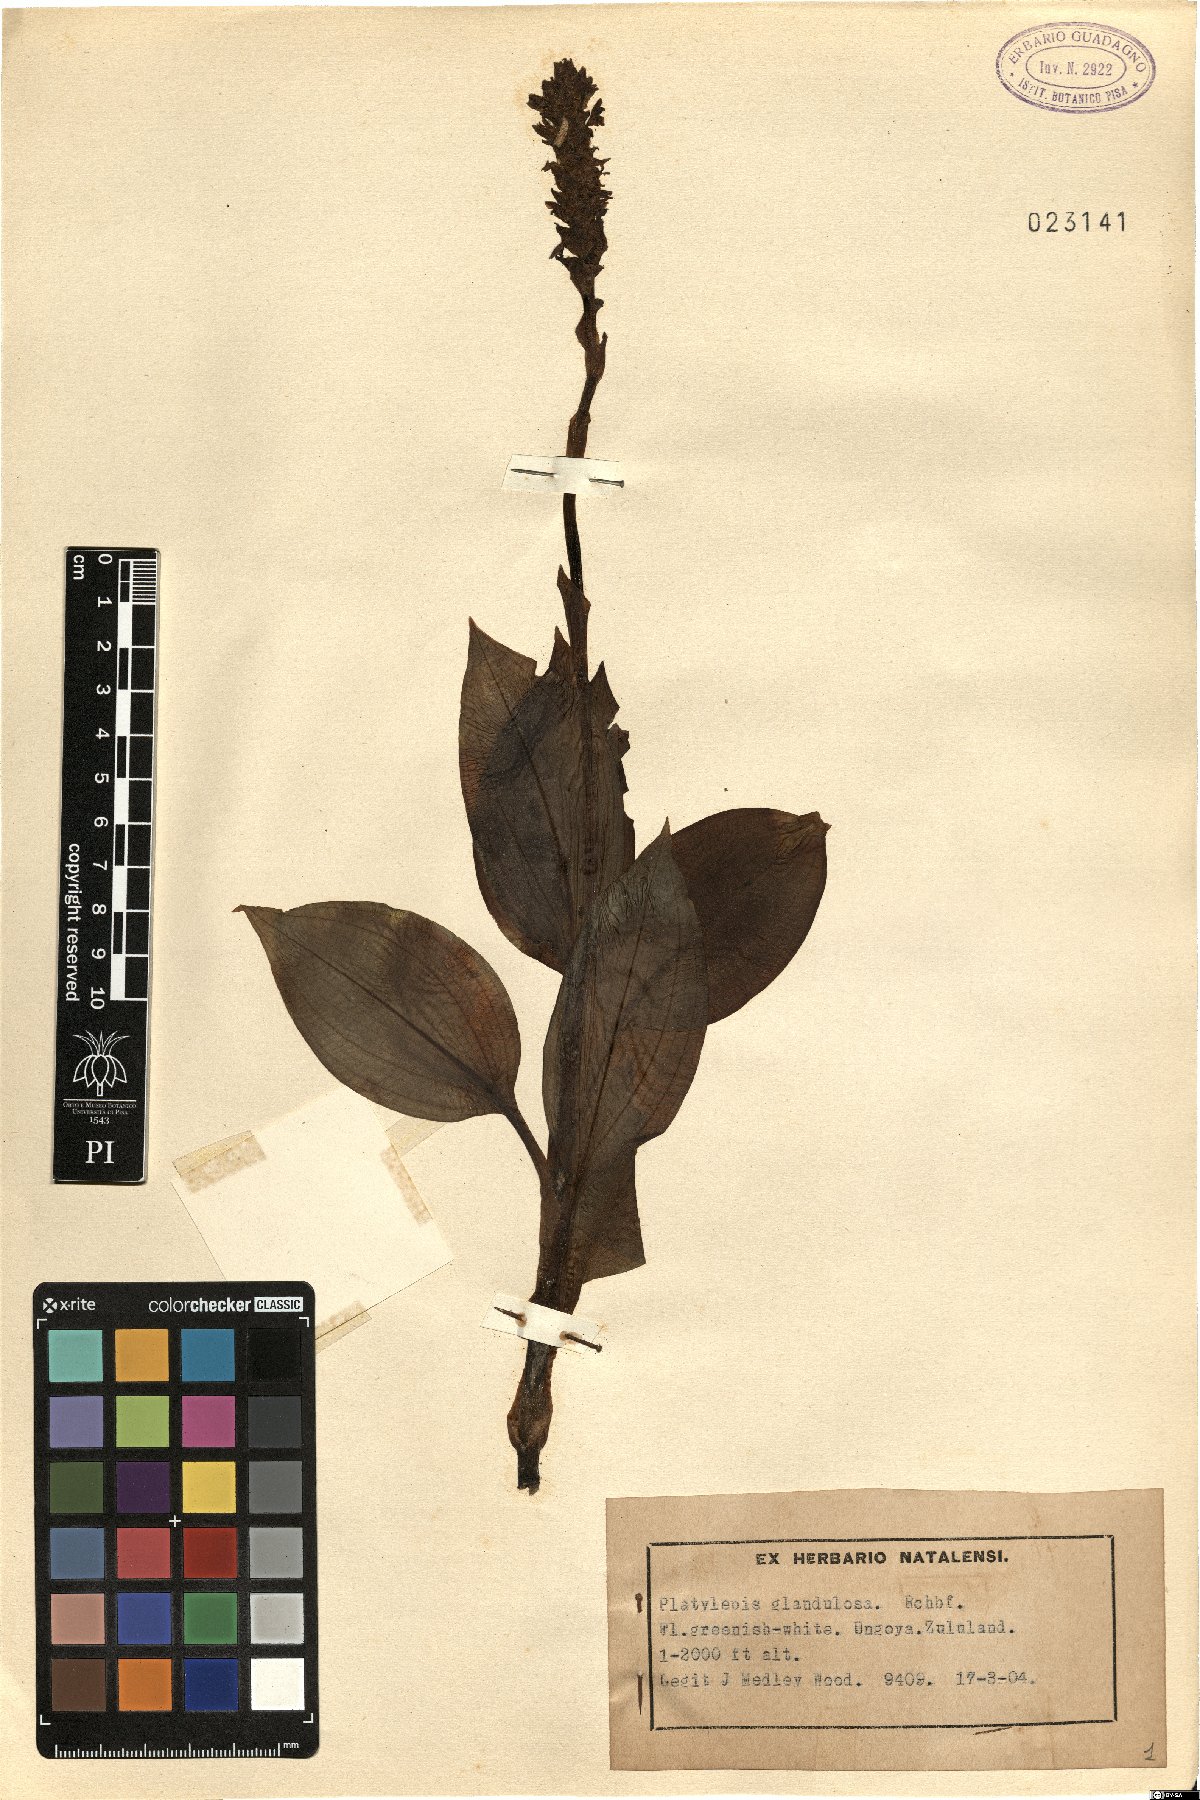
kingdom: Plantae
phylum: Tracheophyta
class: Liliopsida
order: Asparagales
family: Orchidaceae
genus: Platylepis
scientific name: Platylepis glandulosa
